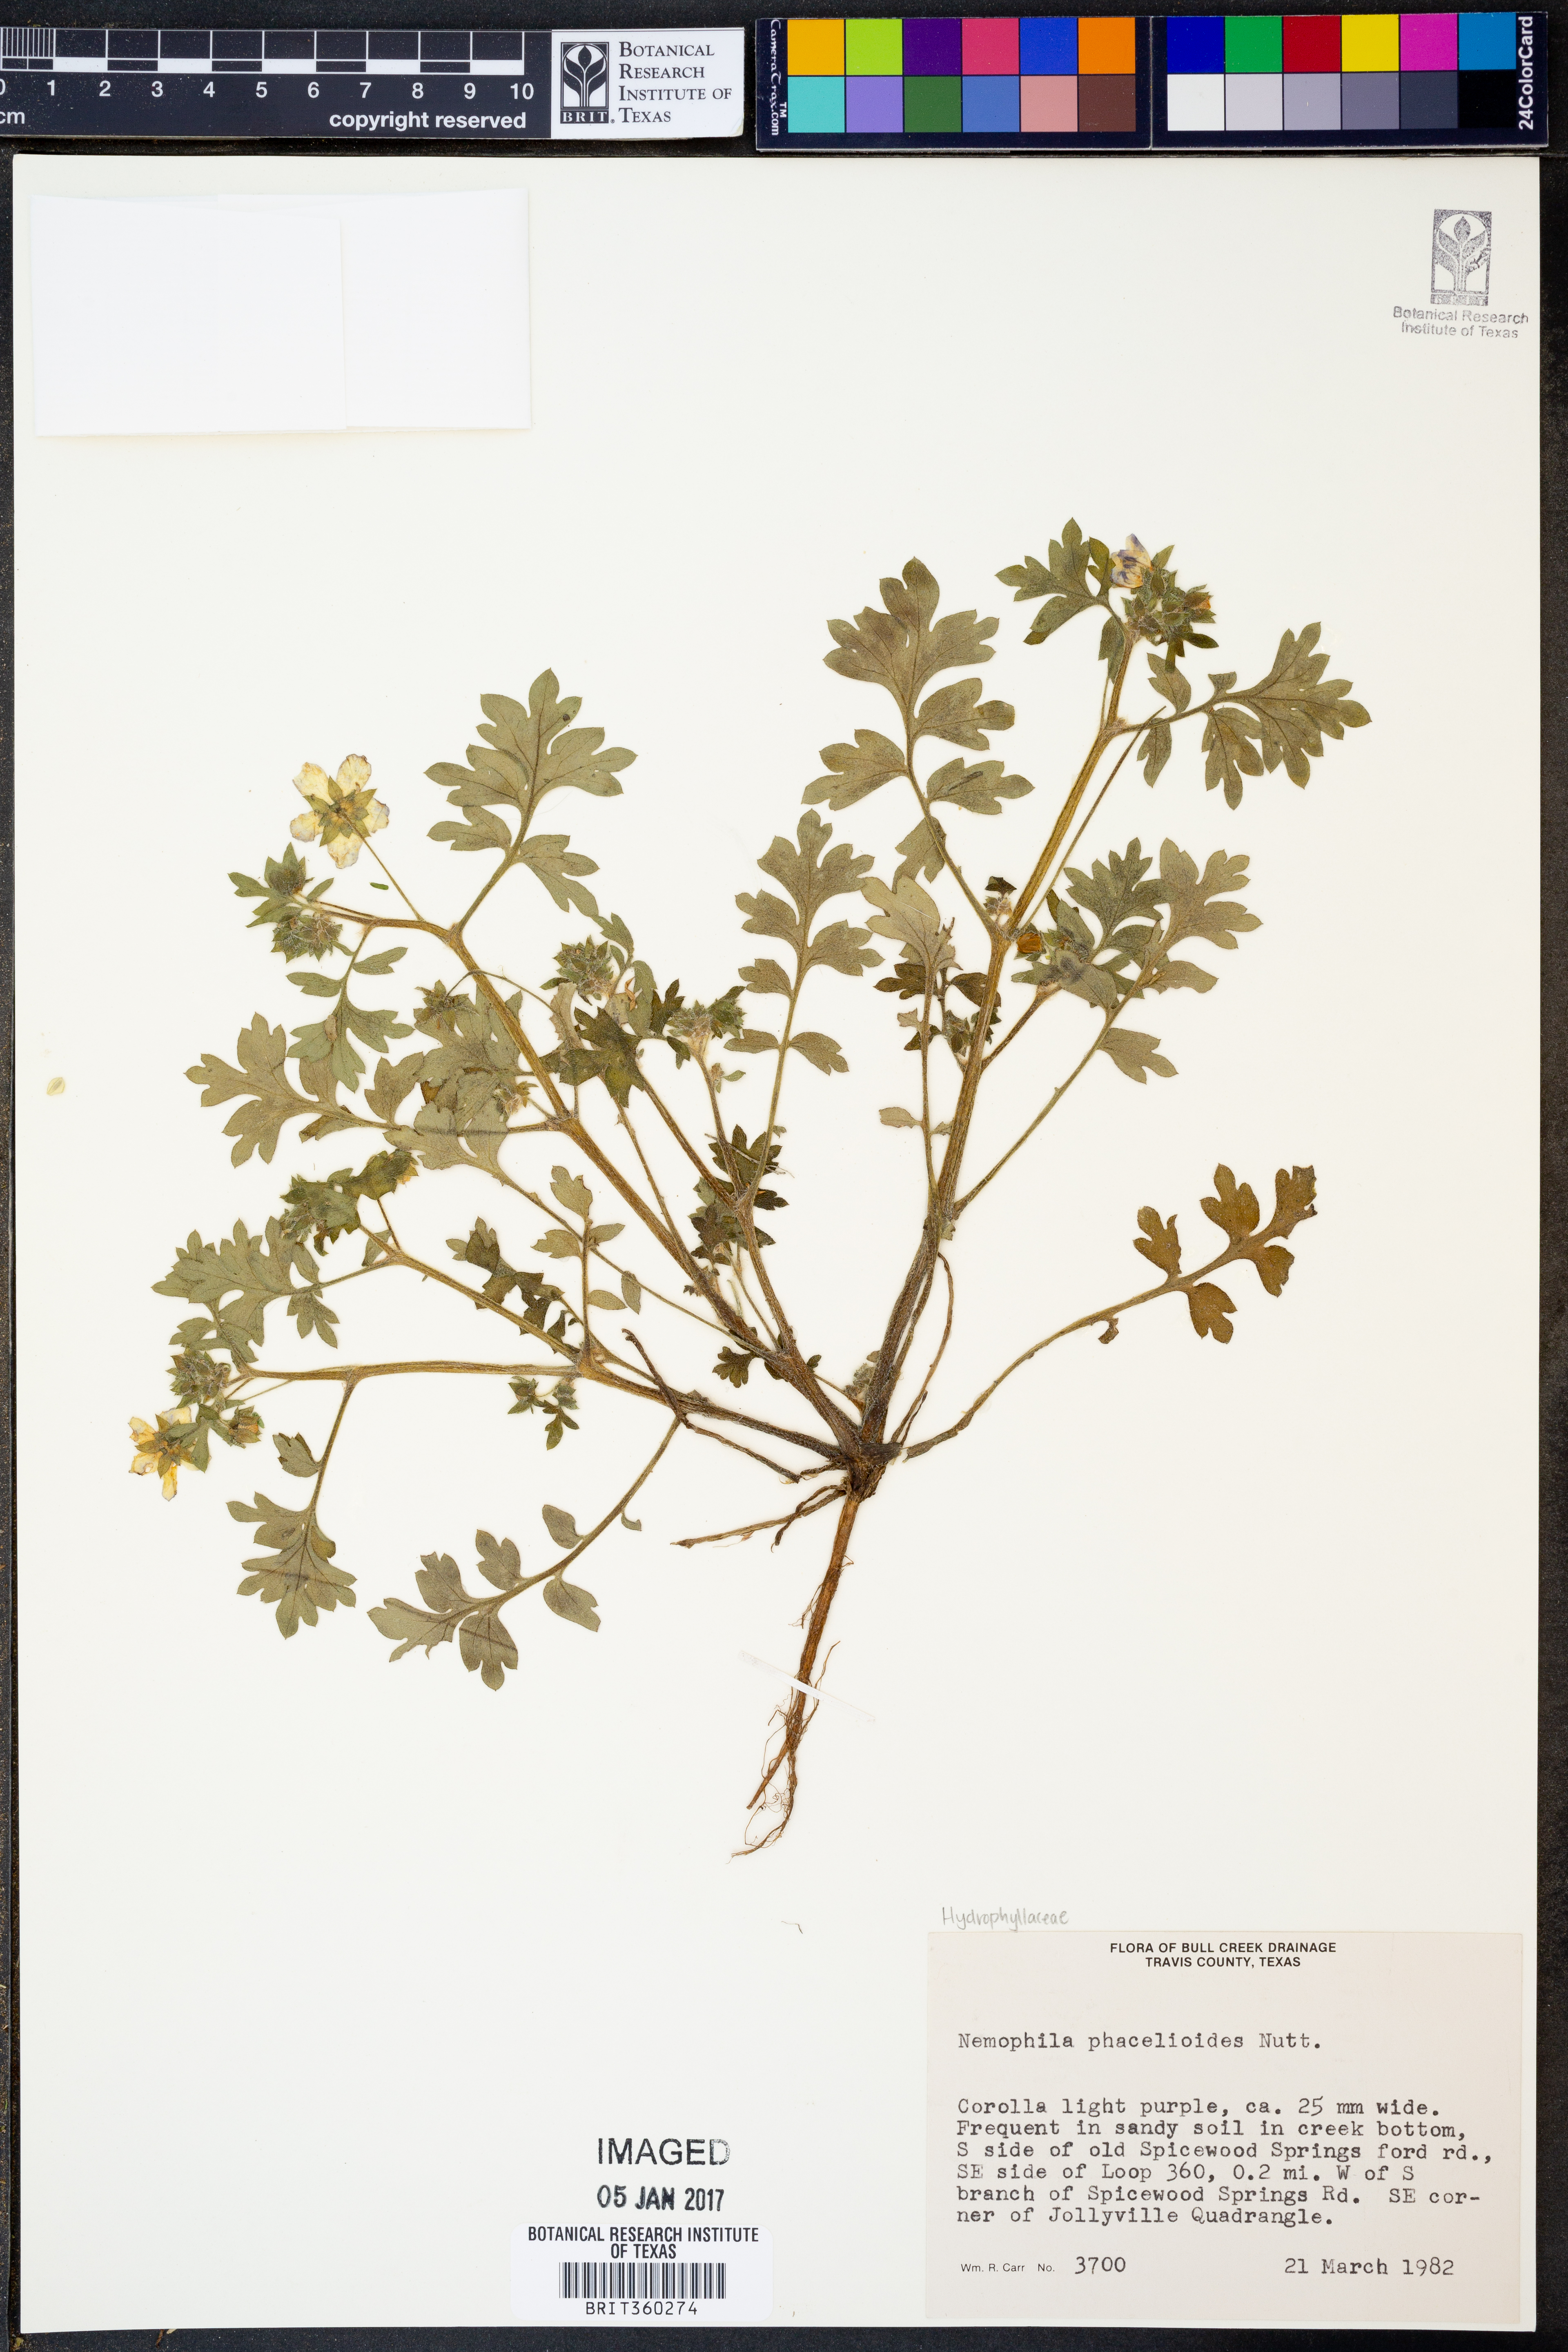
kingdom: Plantae
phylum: Tracheophyta
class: Magnoliopsida
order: Boraginales
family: Hydrophyllaceae
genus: Nemophila
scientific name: Nemophila phacelioides
